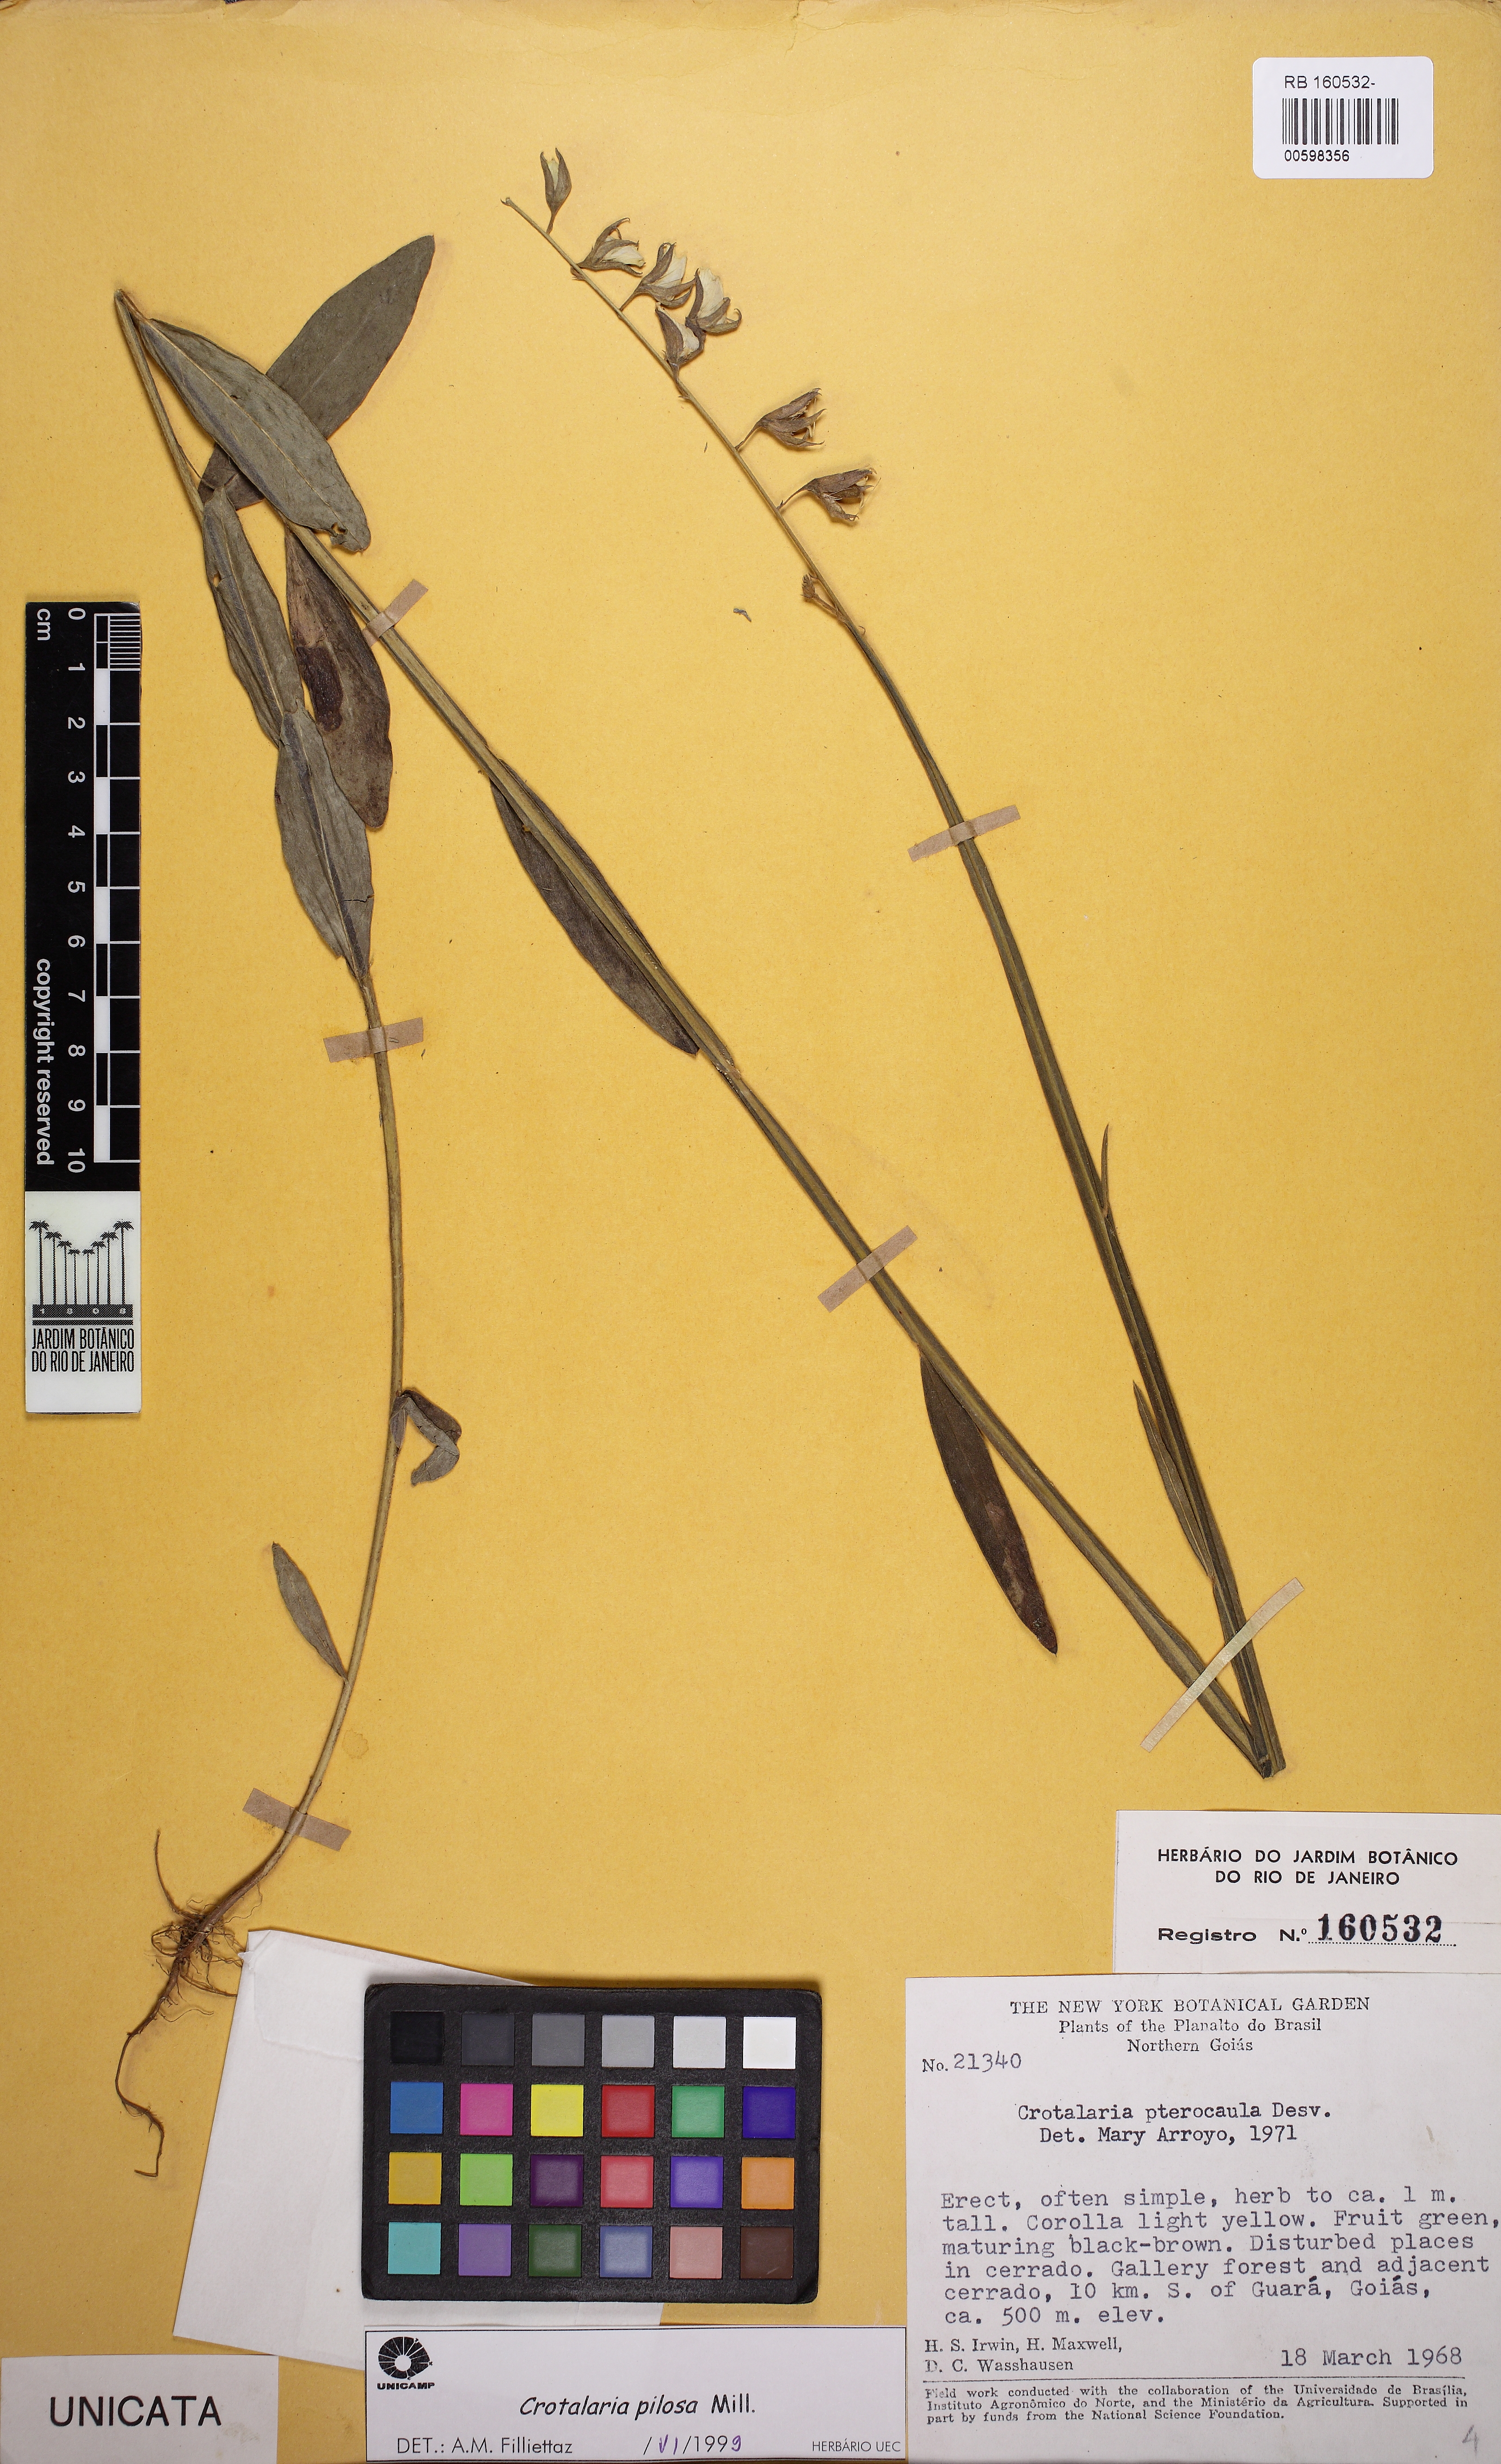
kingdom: Plantae
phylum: Tracheophyta
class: Magnoliopsida
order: Fabales
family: Fabaceae
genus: Crotalaria
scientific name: Crotalaria pilosa
